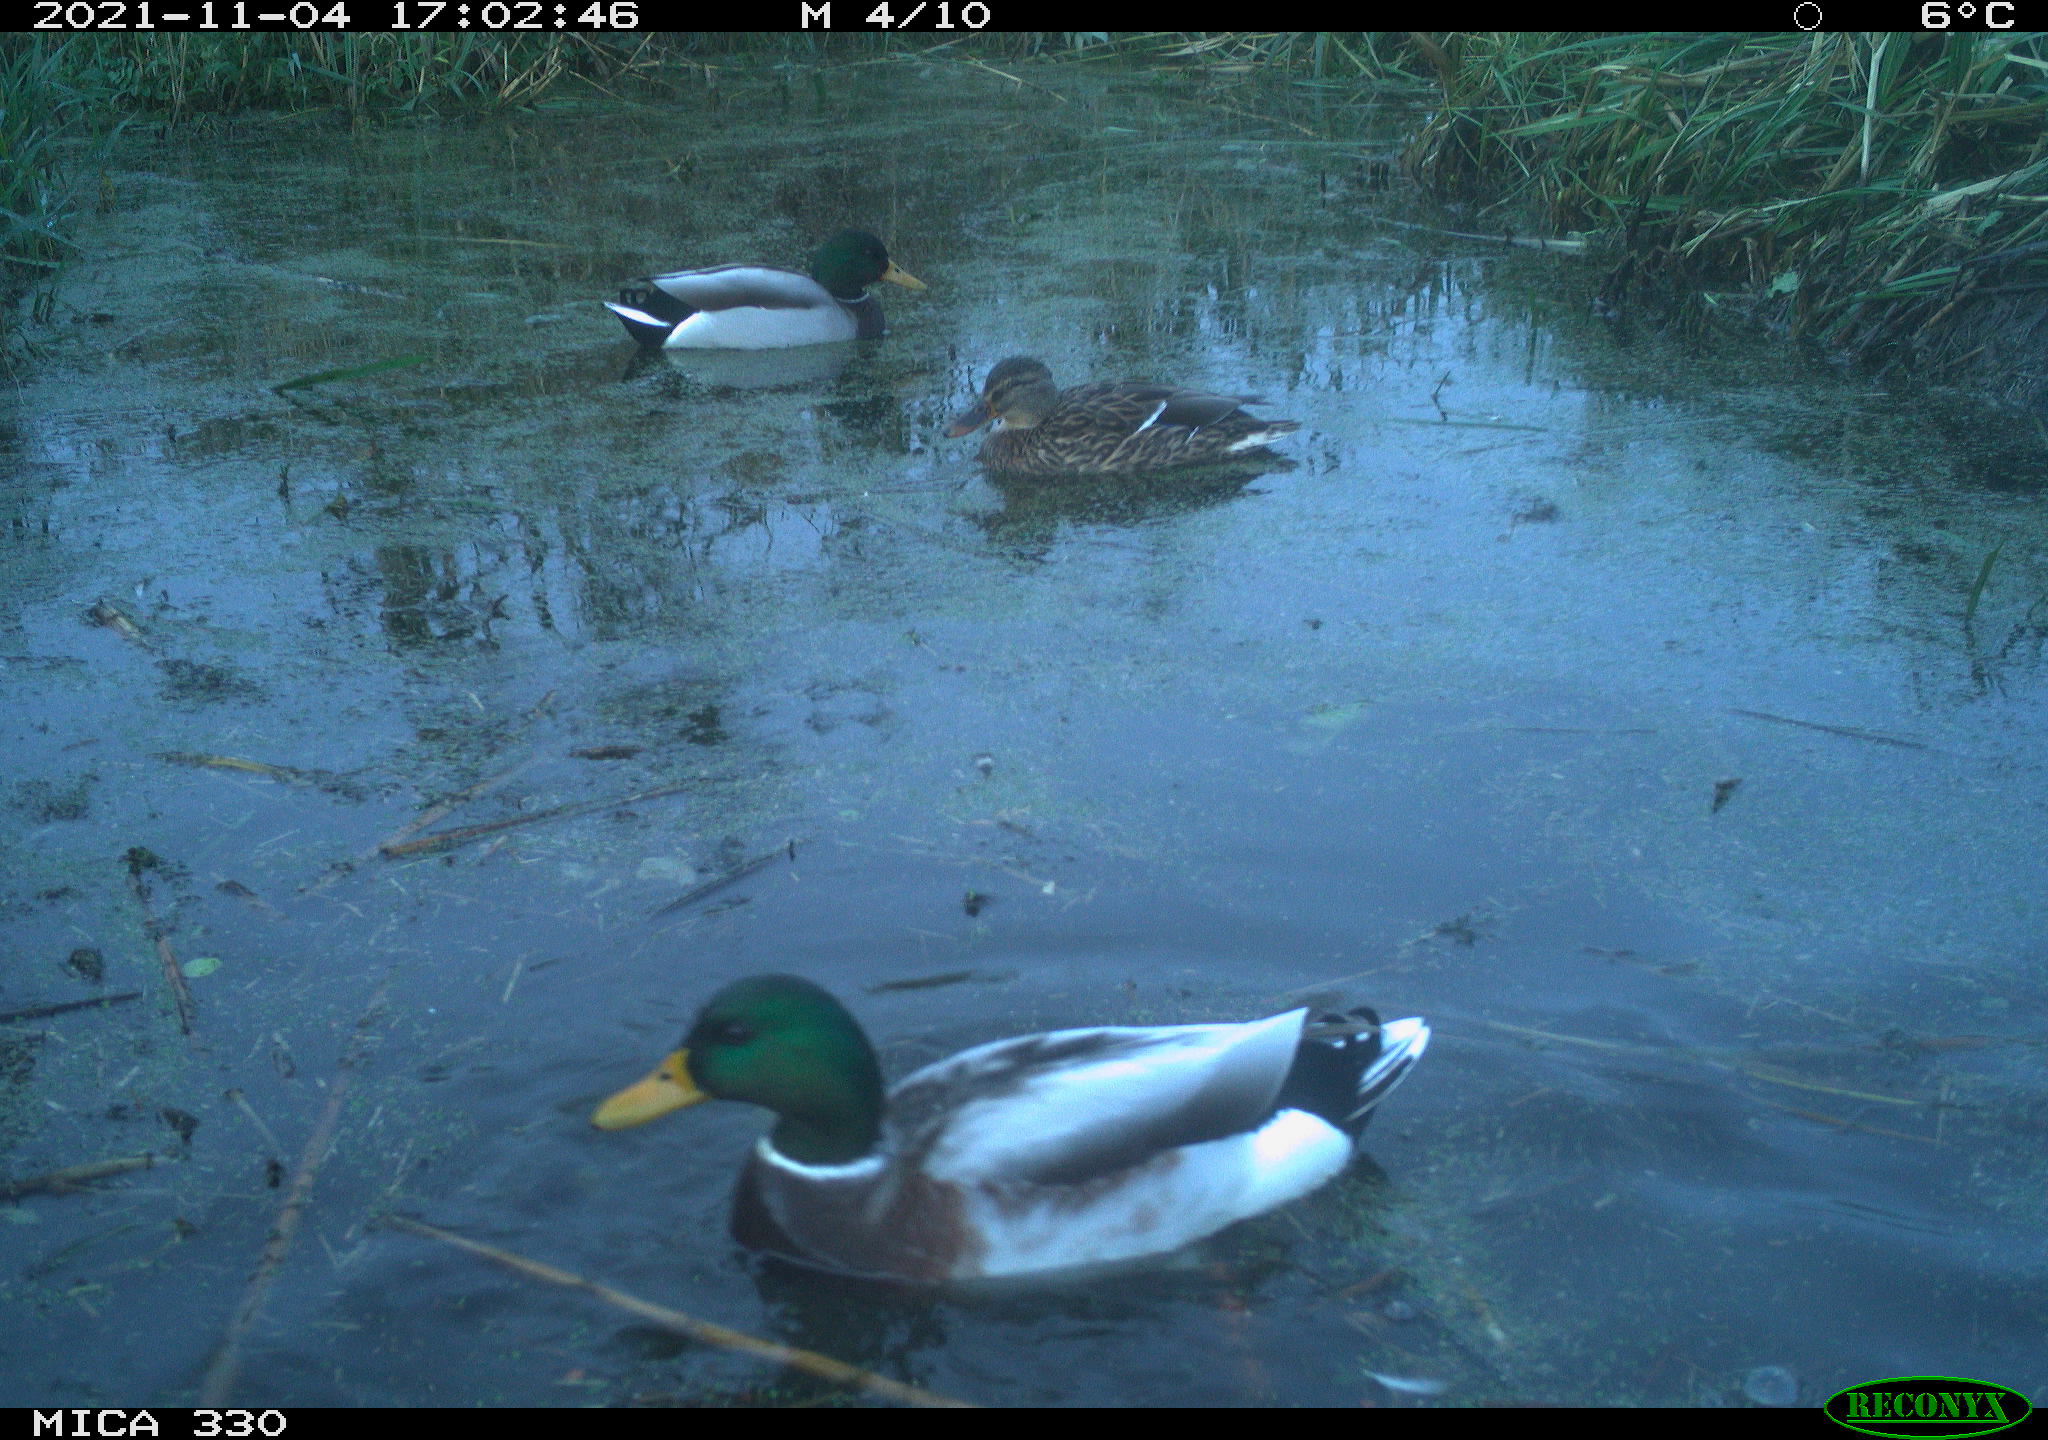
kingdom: Animalia
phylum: Chordata
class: Aves
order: Anseriformes
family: Anatidae
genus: Anas
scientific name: Anas platyrhynchos
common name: Mallard
